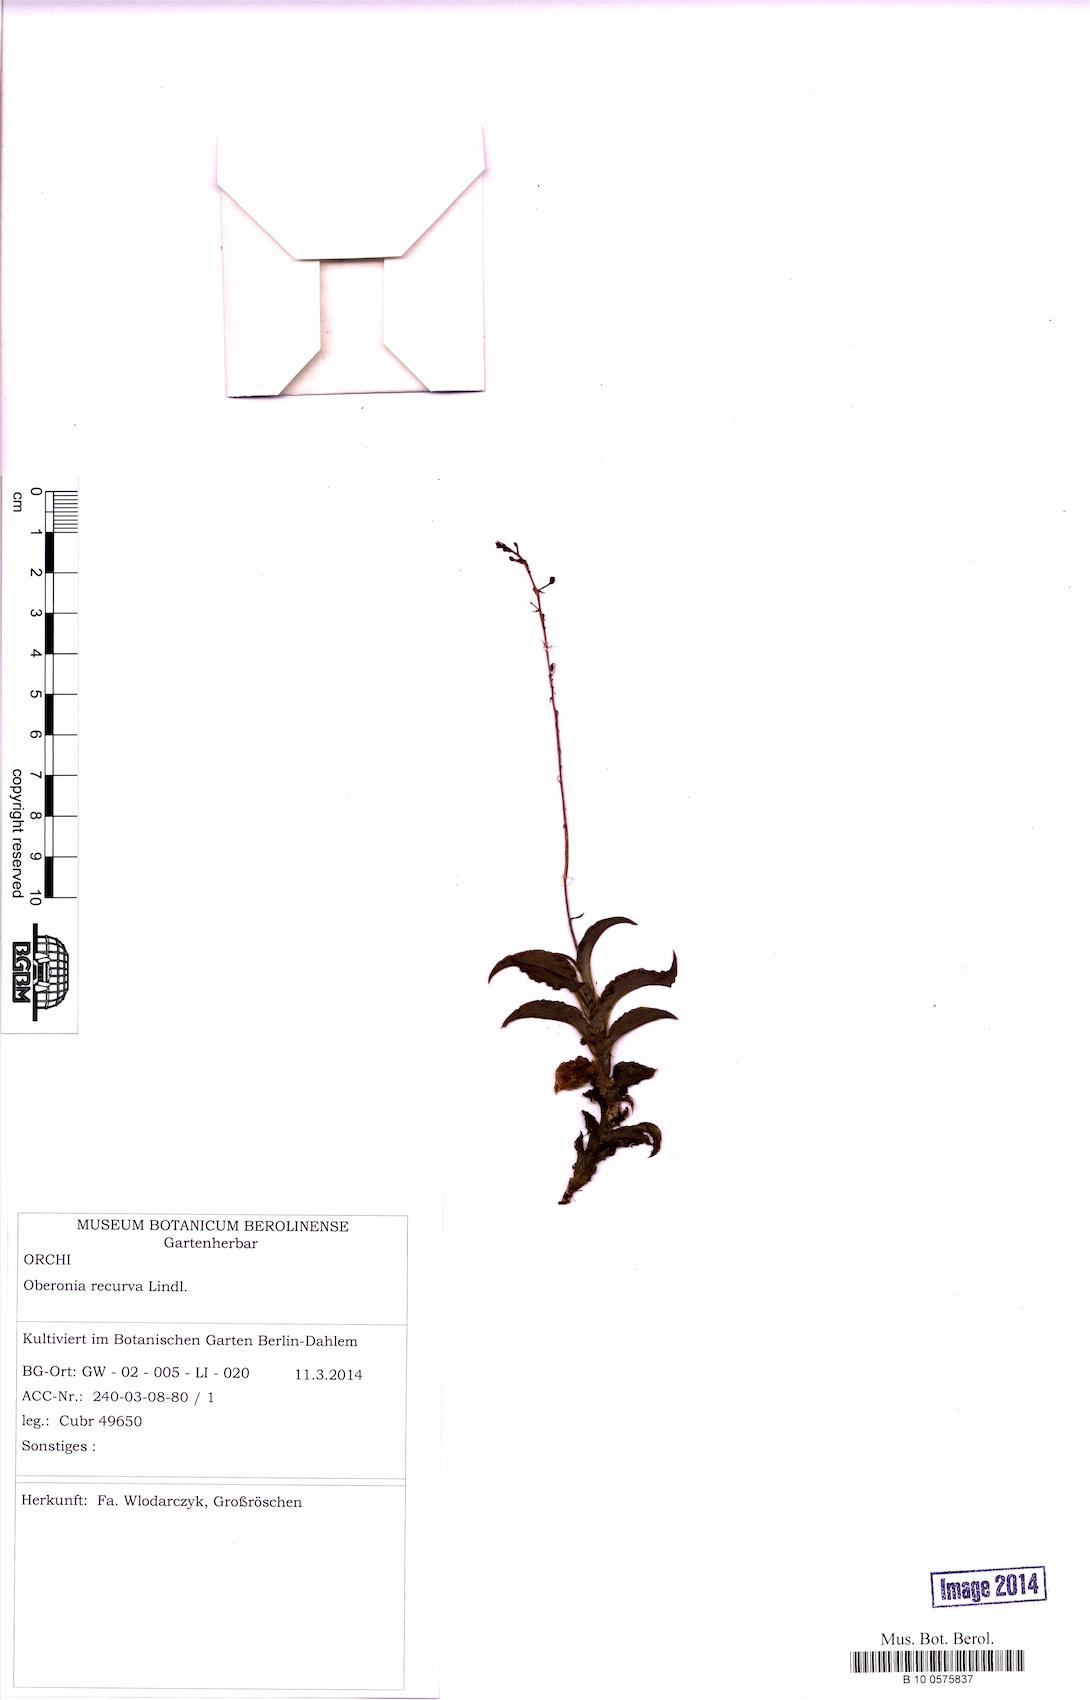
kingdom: Plantae
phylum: Tracheophyta
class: Liliopsida
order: Asparagales
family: Orchidaceae
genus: Oberonia
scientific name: Oberonia brachystachys
